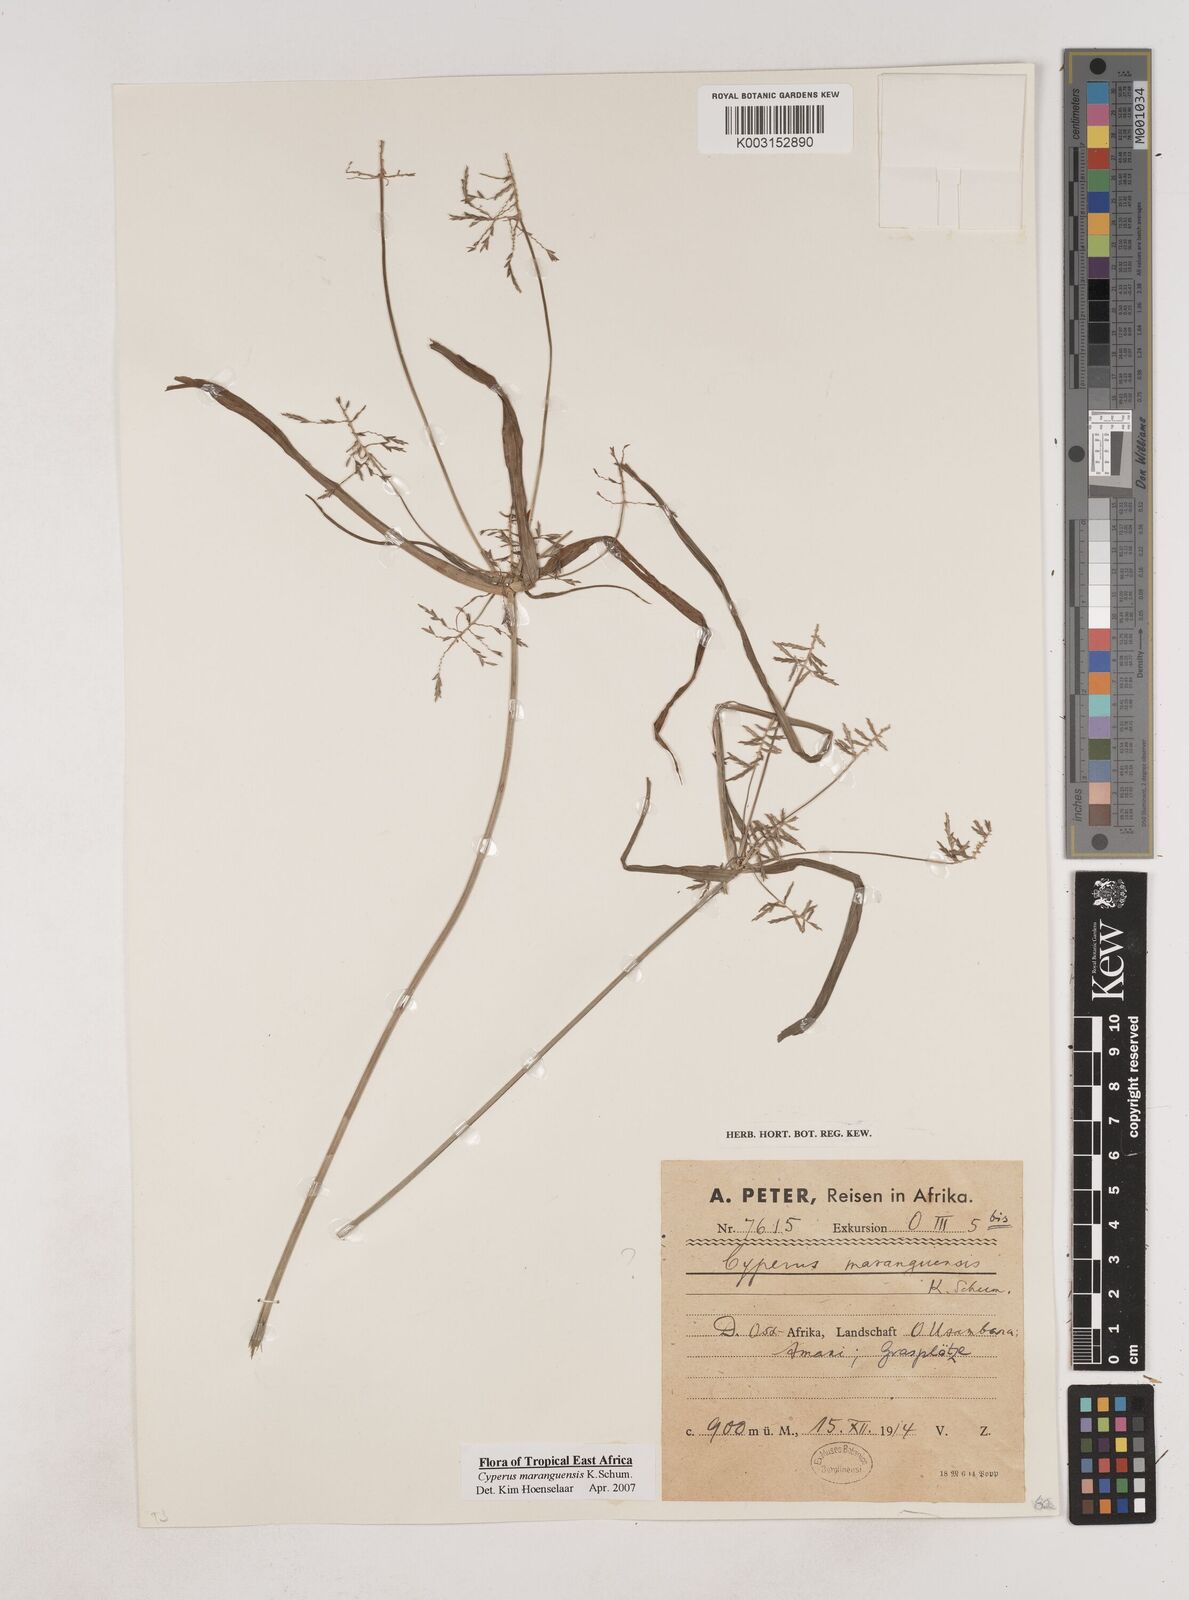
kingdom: Plantae
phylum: Tracheophyta
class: Liliopsida
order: Poales
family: Cyperaceae
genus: Cyperus
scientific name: Cyperus maranguensis
